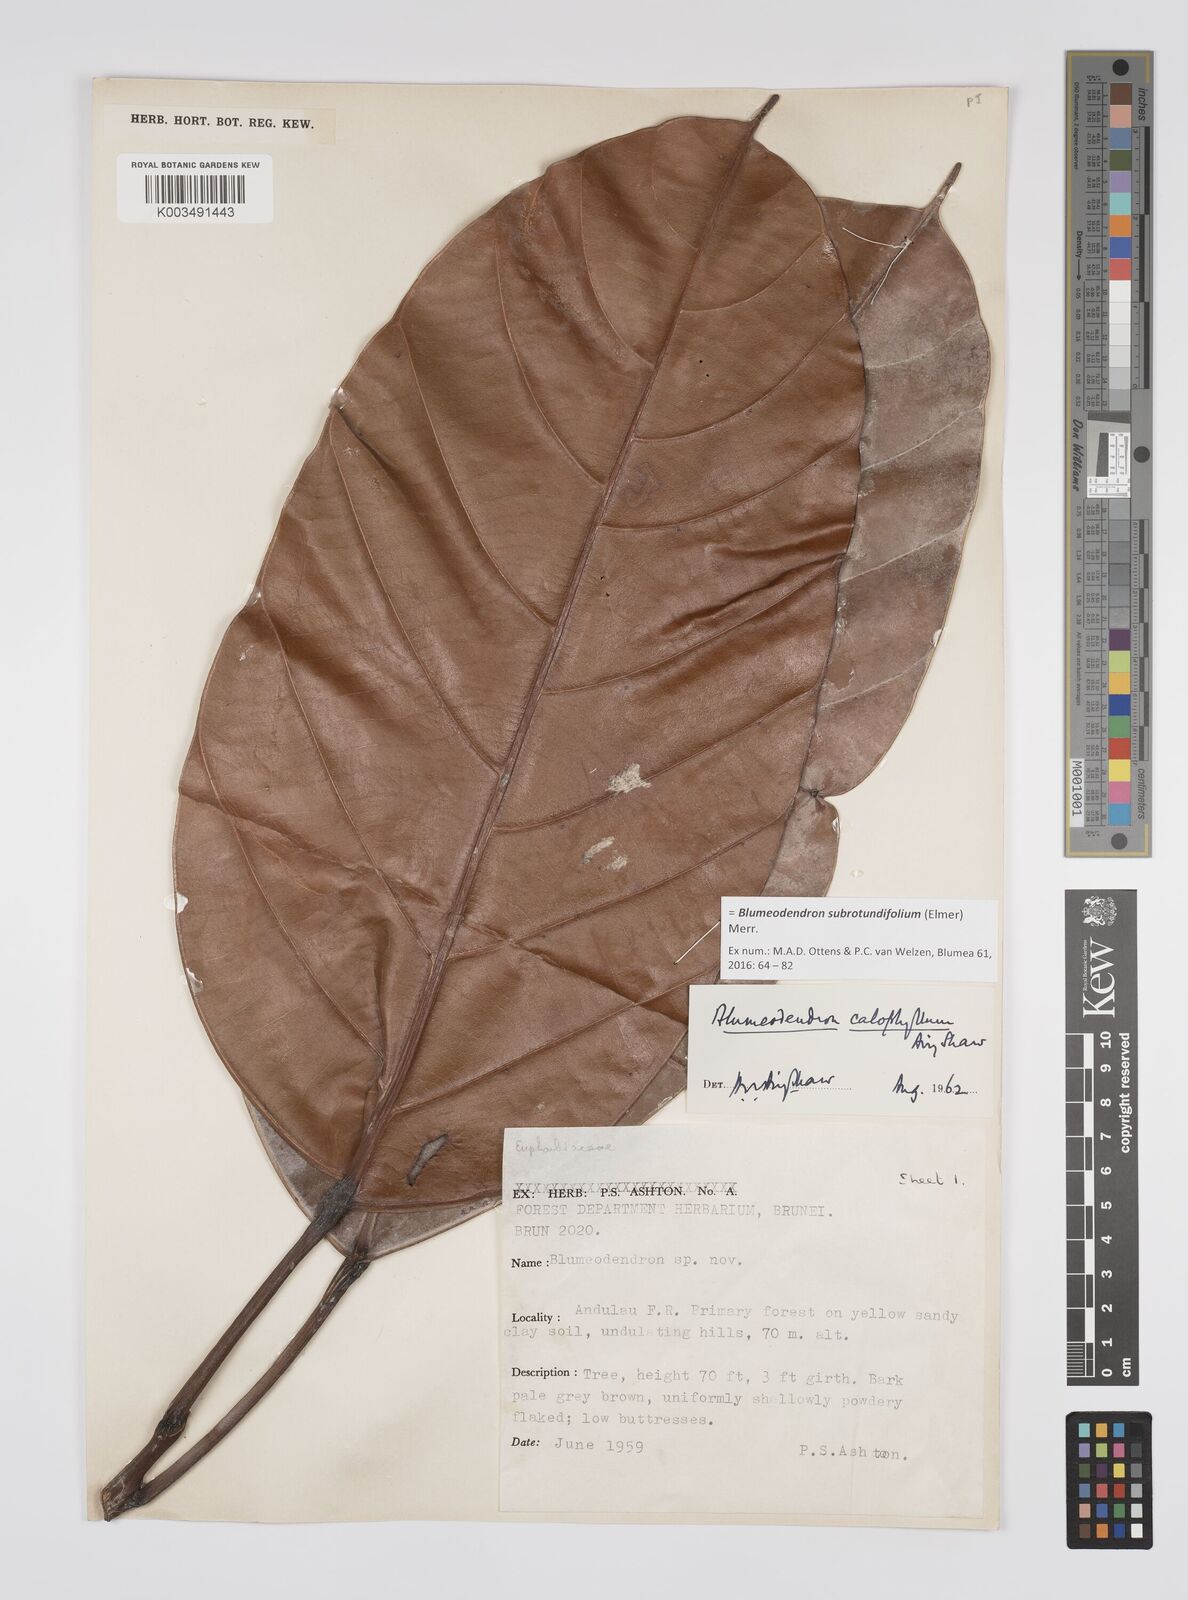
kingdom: Plantae
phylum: Tracheophyta
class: Magnoliopsida
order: Malpighiales
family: Euphorbiaceae
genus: Blumeodendron
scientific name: Blumeodendron subrotundifolium
